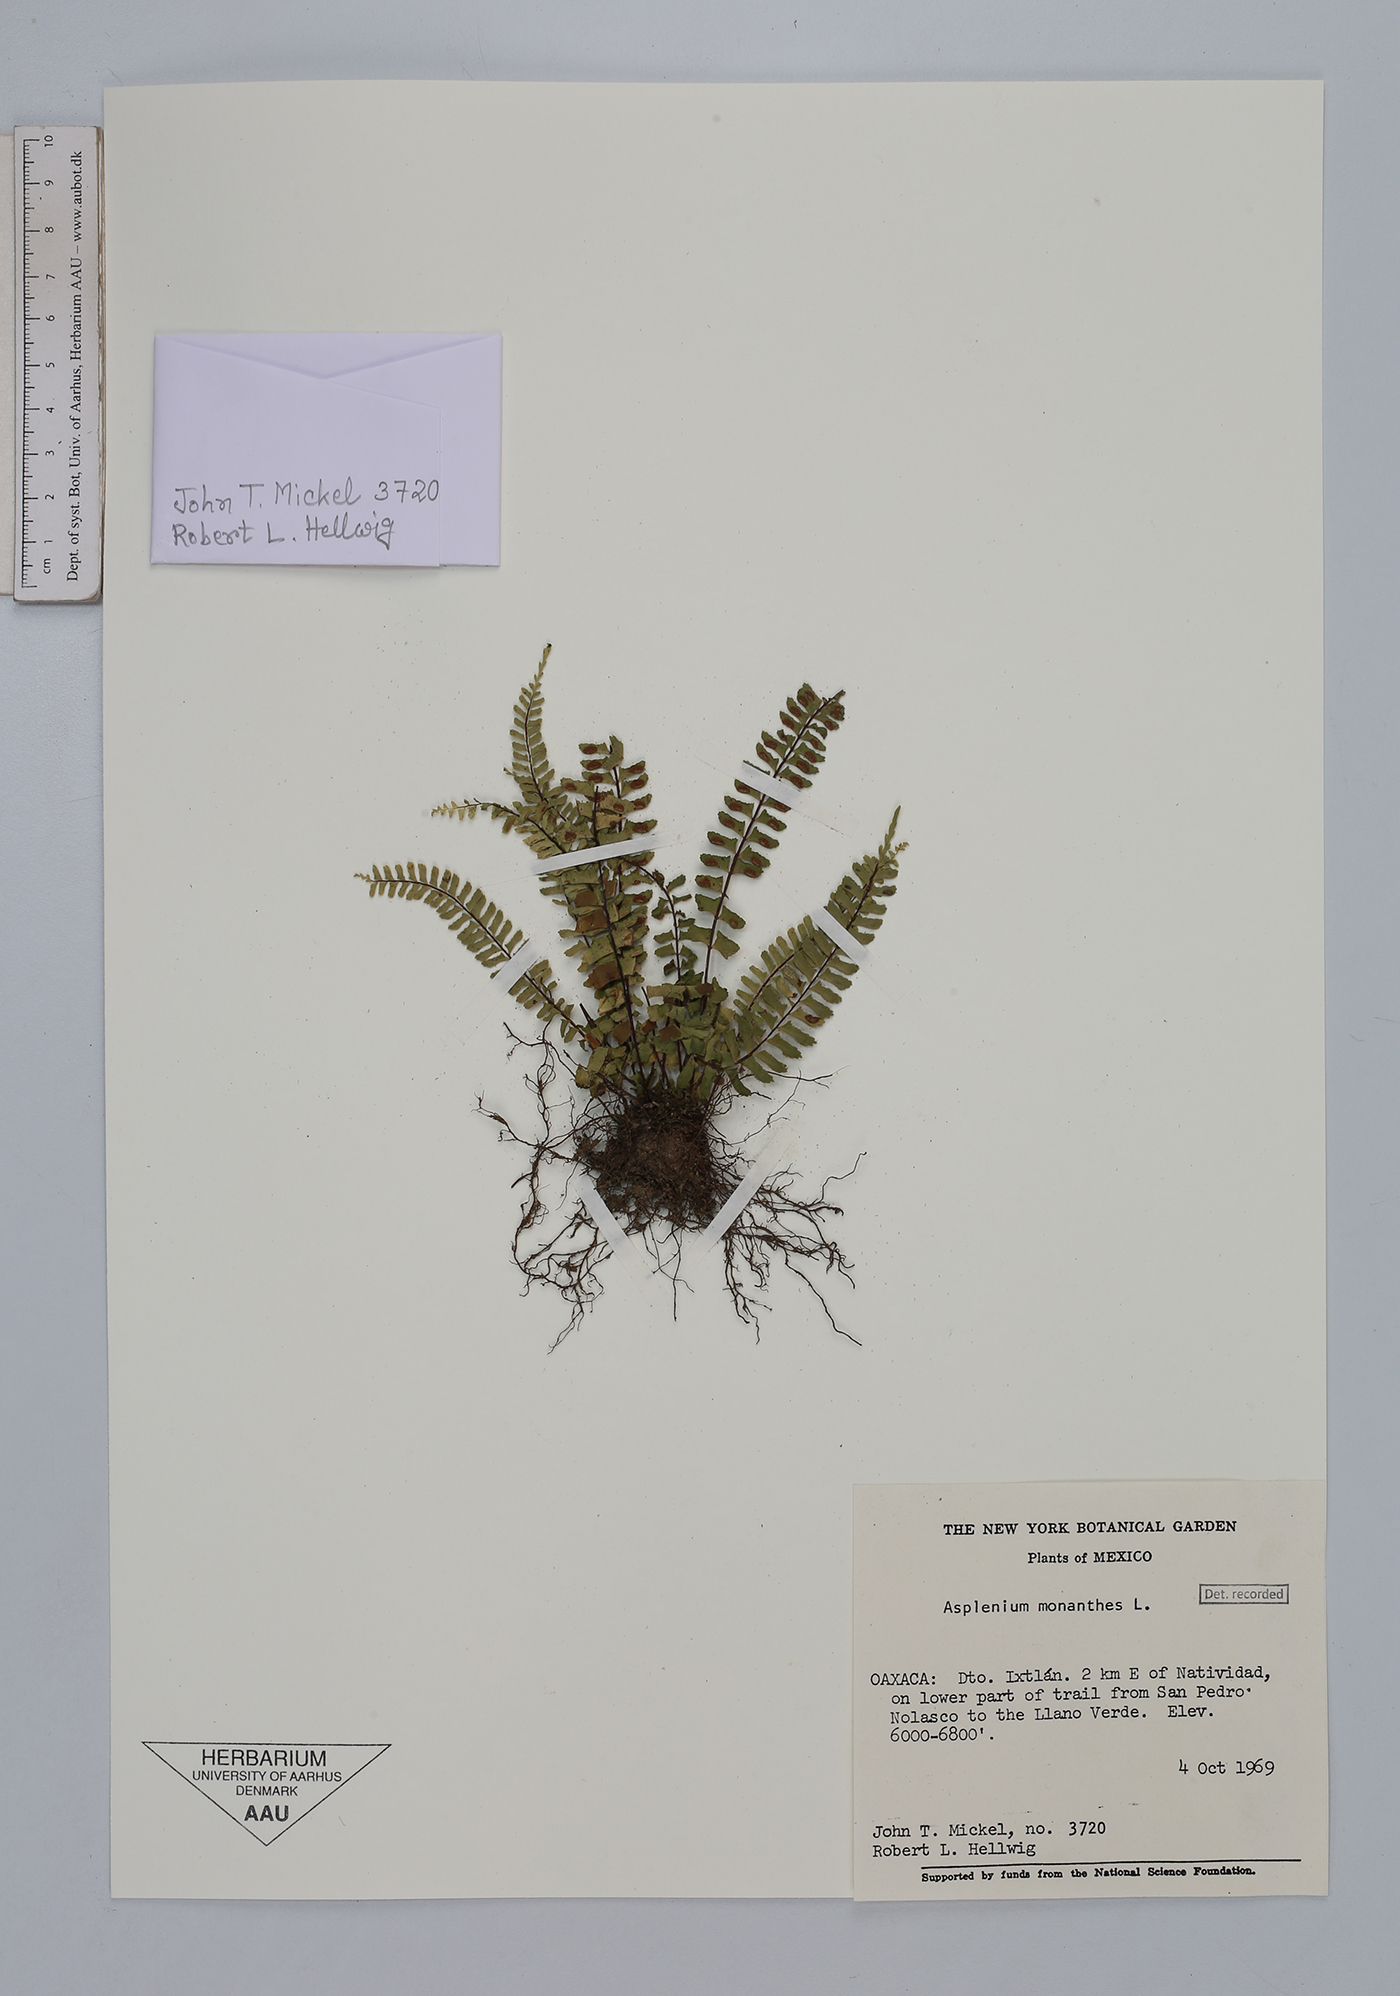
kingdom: Plantae
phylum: Tracheophyta
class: Polypodiopsida
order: Polypodiales
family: Aspleniaceae
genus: Asplenium
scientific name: Asplenium monanthes
